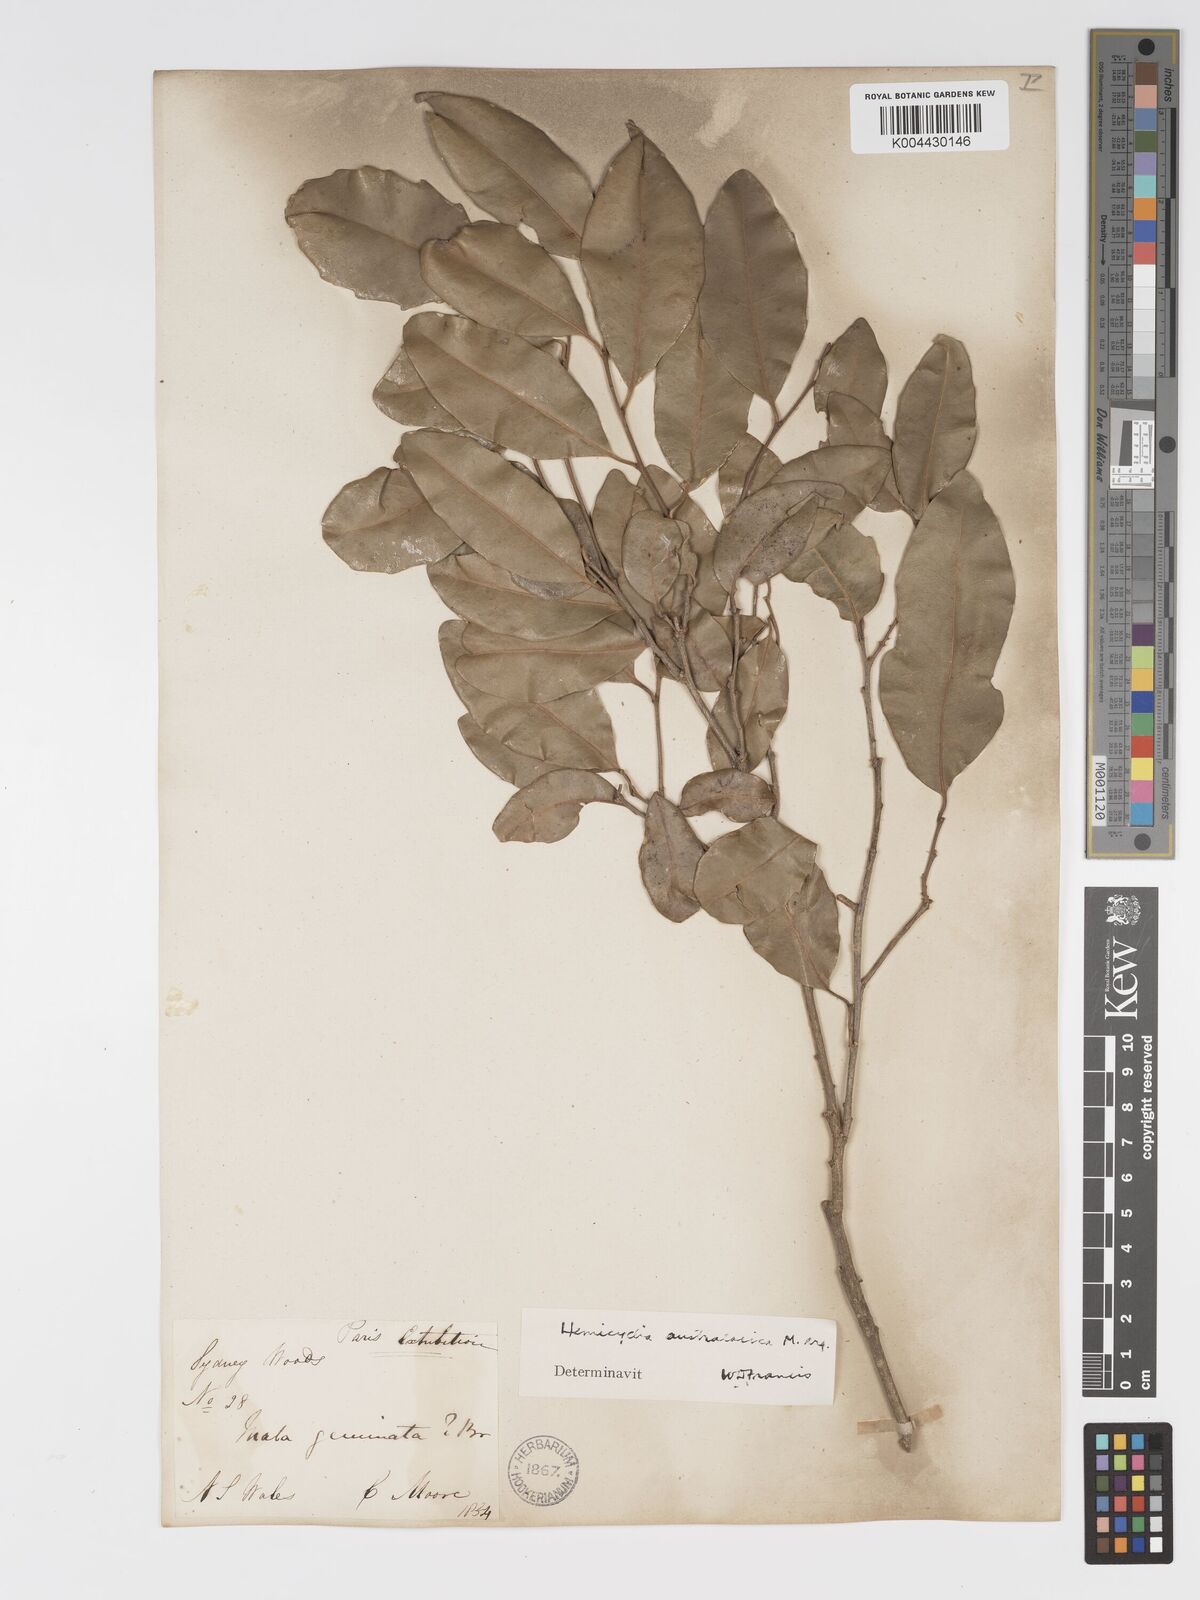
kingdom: Plantae
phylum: Tracheophyta
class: Magnoliopsida
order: Malpighiales
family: Putranjivaceae
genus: Drypetes
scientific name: Drypetes deplanchei
